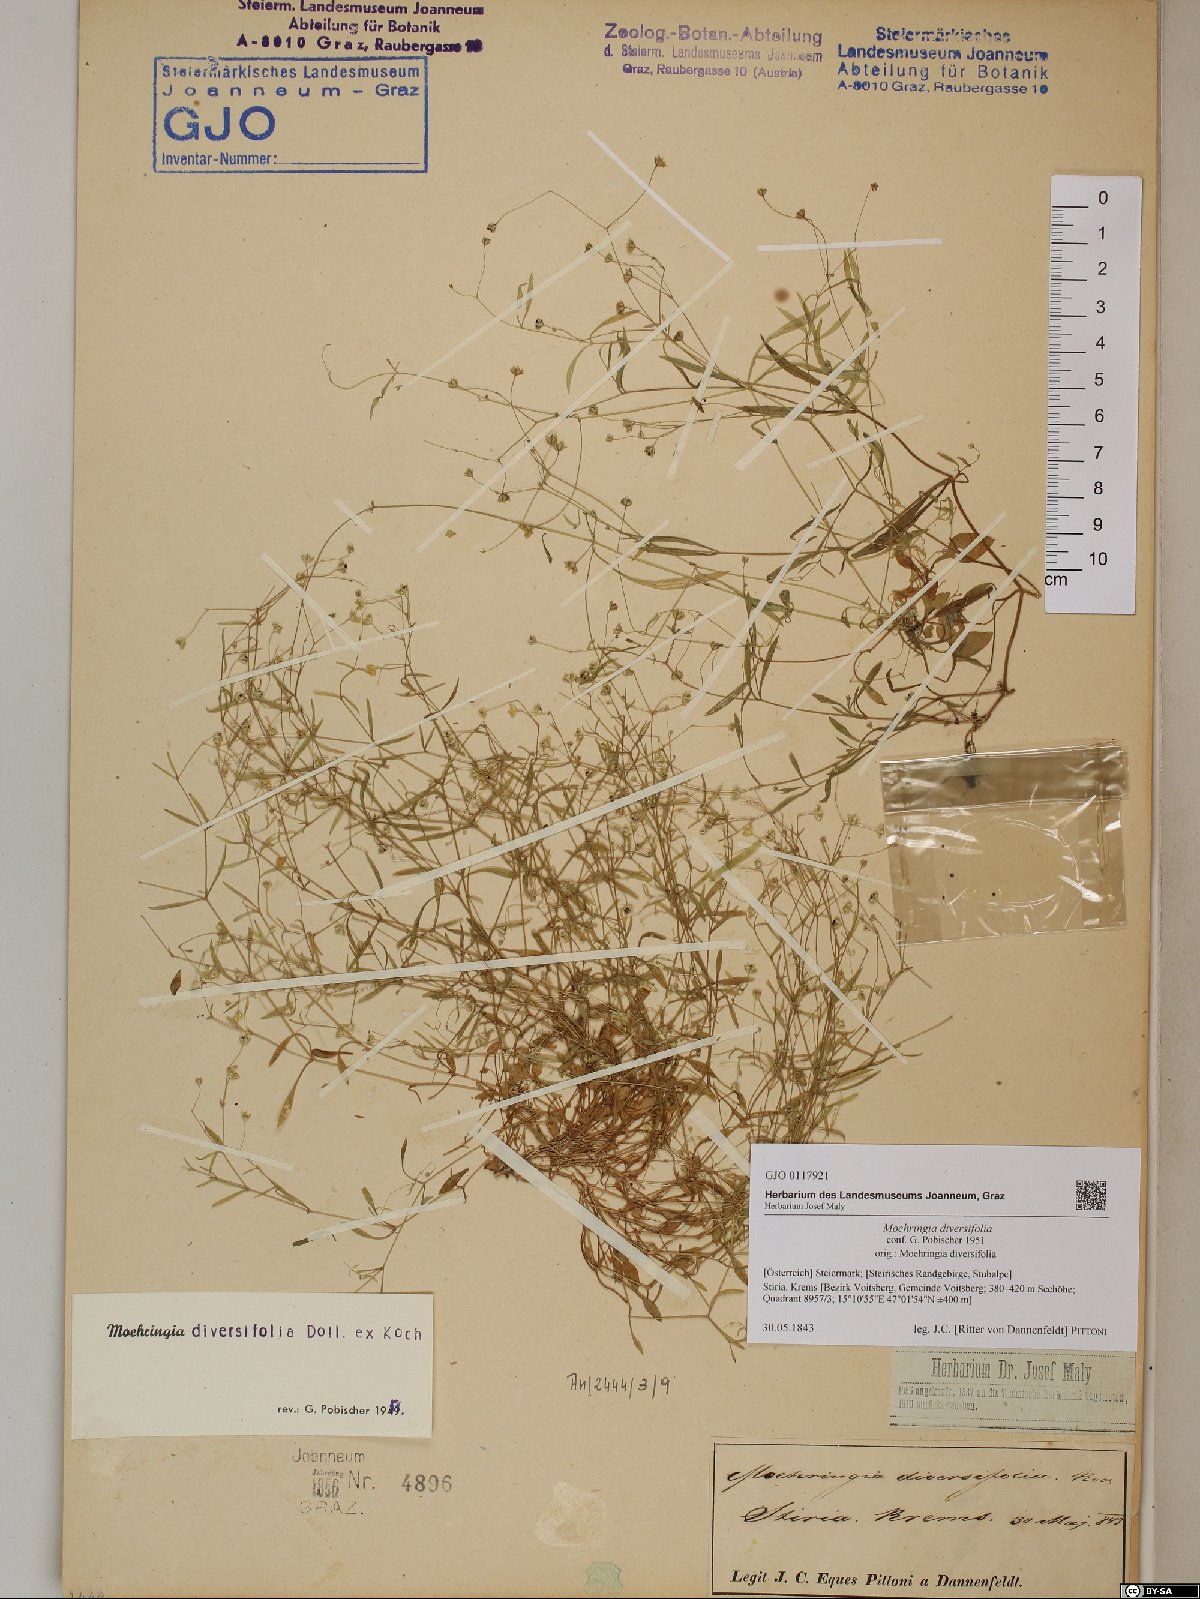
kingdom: Plantae
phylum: Tracheophyta
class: Magnoliopsida
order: Caryophyllales
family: Caryophyllaceae
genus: Moehringia
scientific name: Moehringia diversifolia
